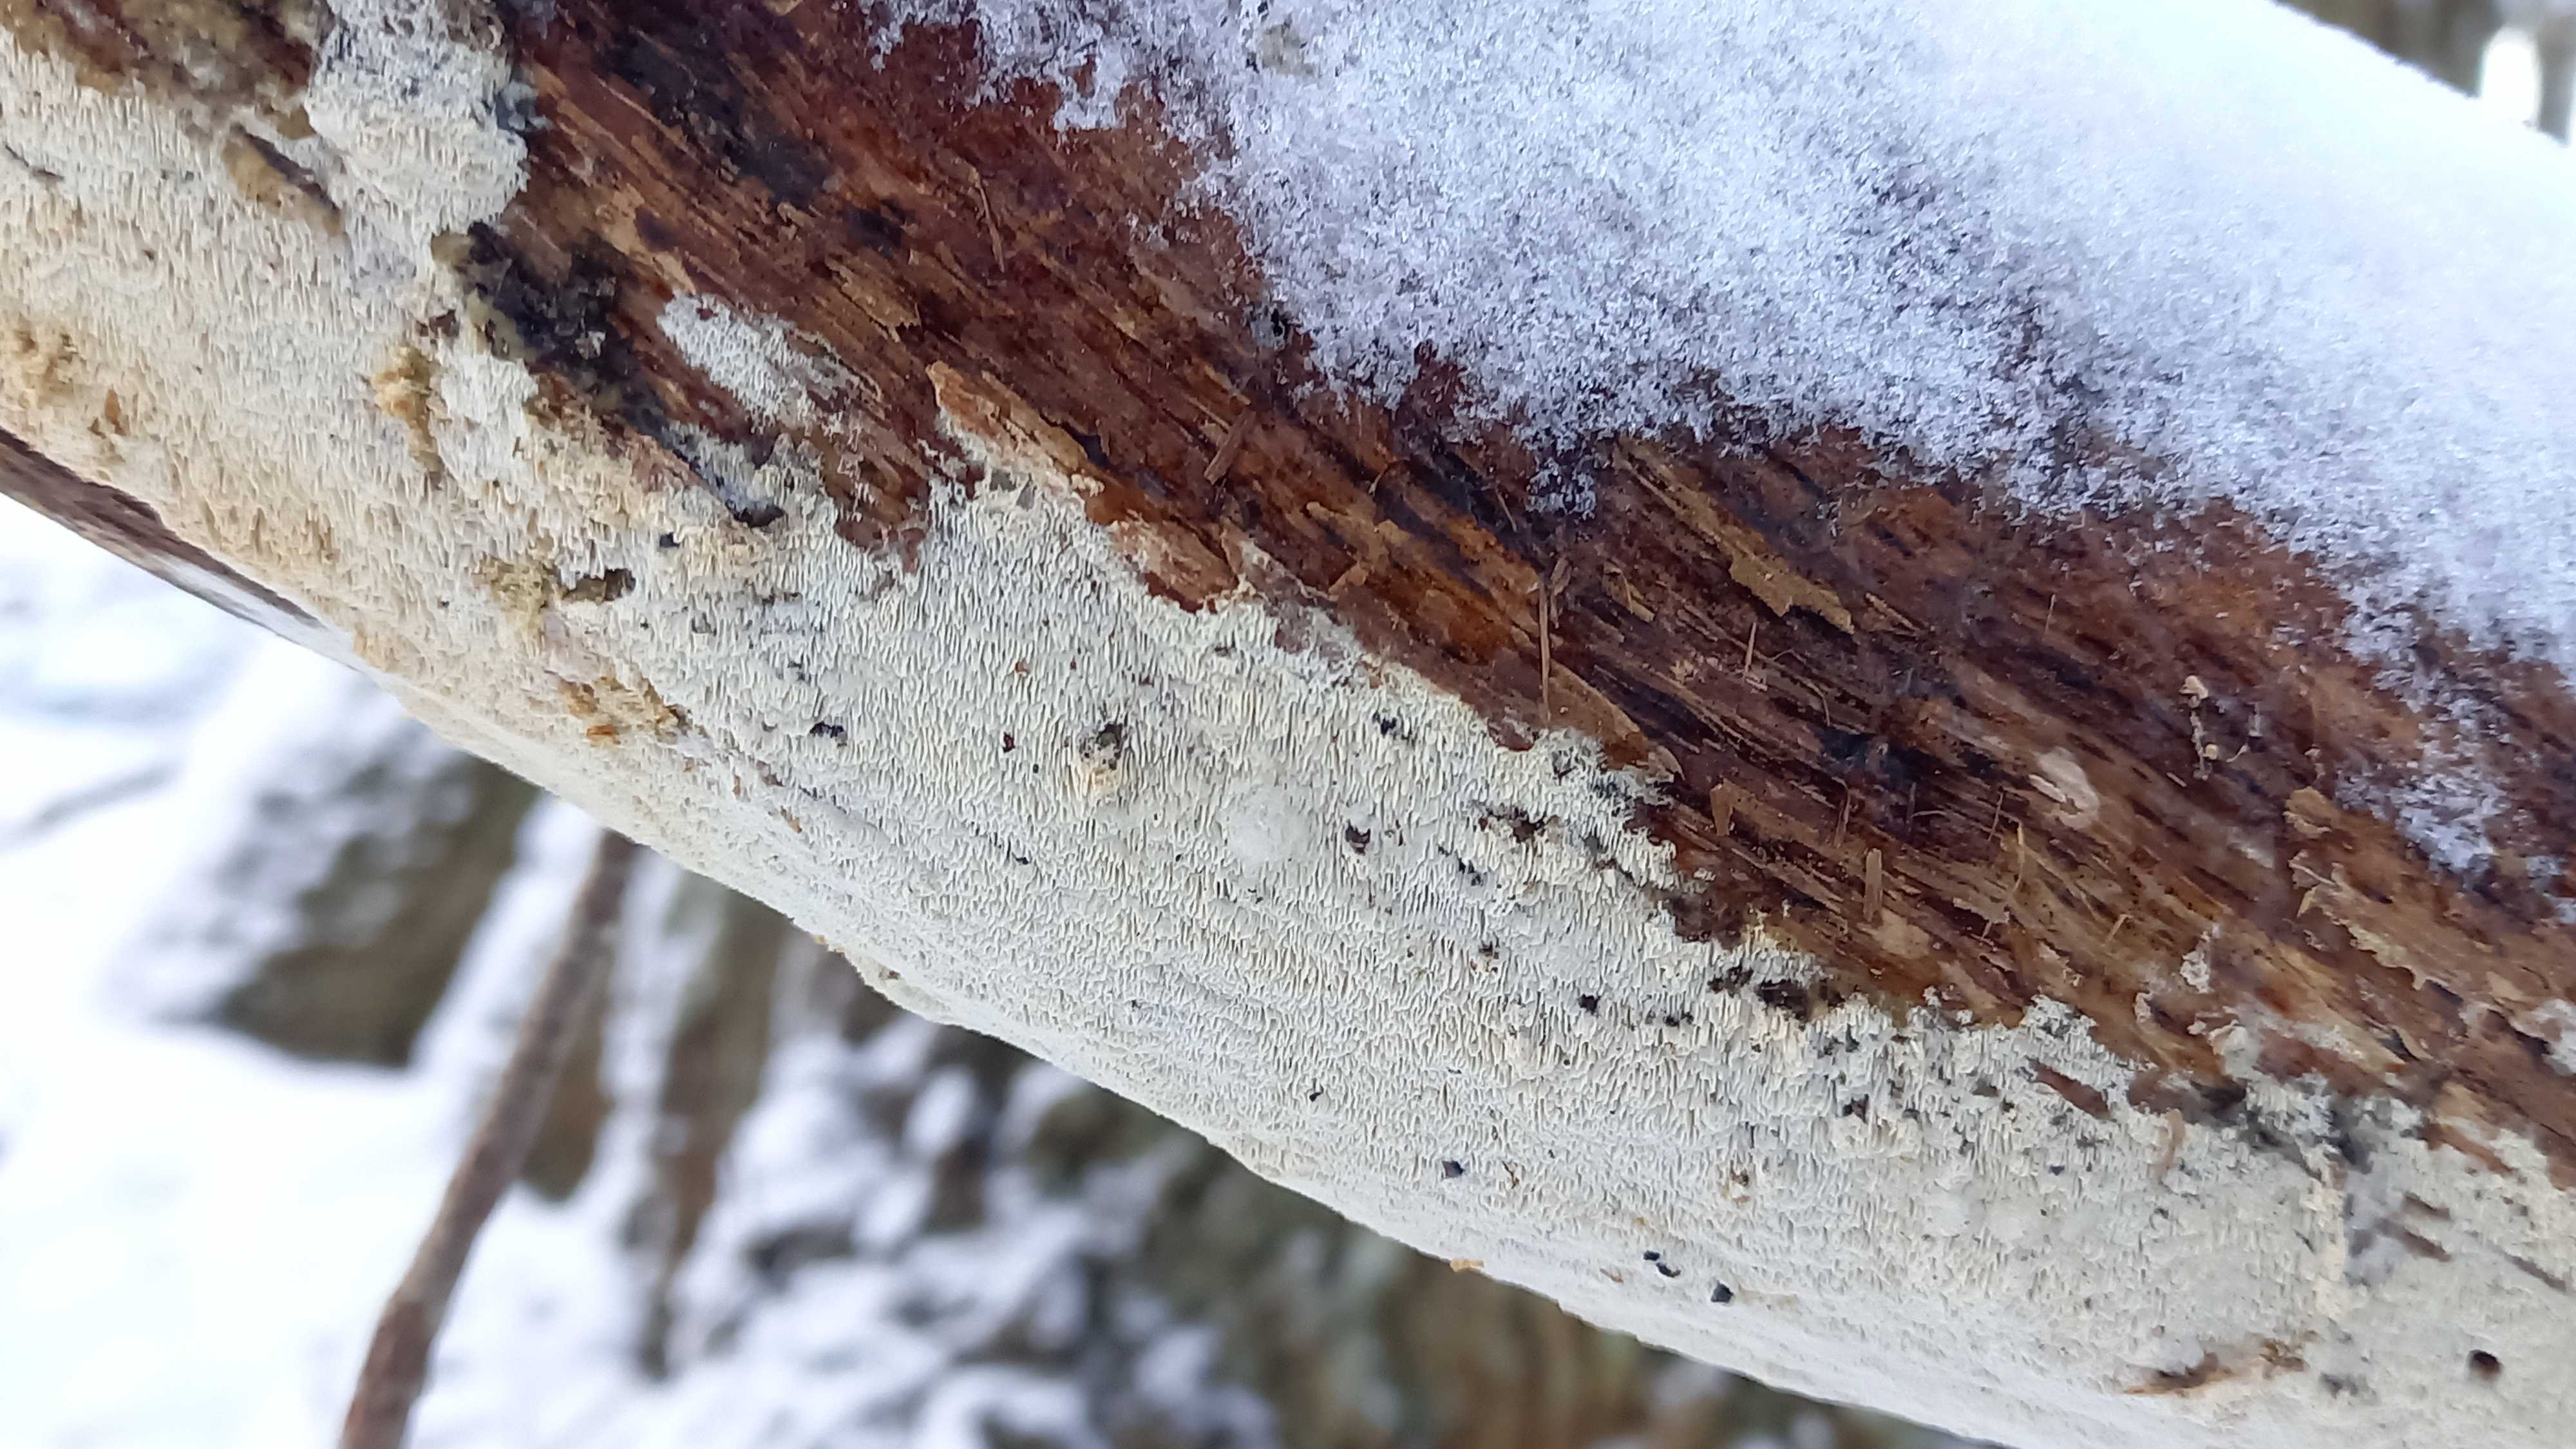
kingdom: Fungi
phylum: Basidiomycota
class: Agaricomycetes
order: Hymenochaetales
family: Schizoporaceae
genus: Xylodon
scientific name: Xylodon subtropicus
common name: labyrint-tandsvamp
